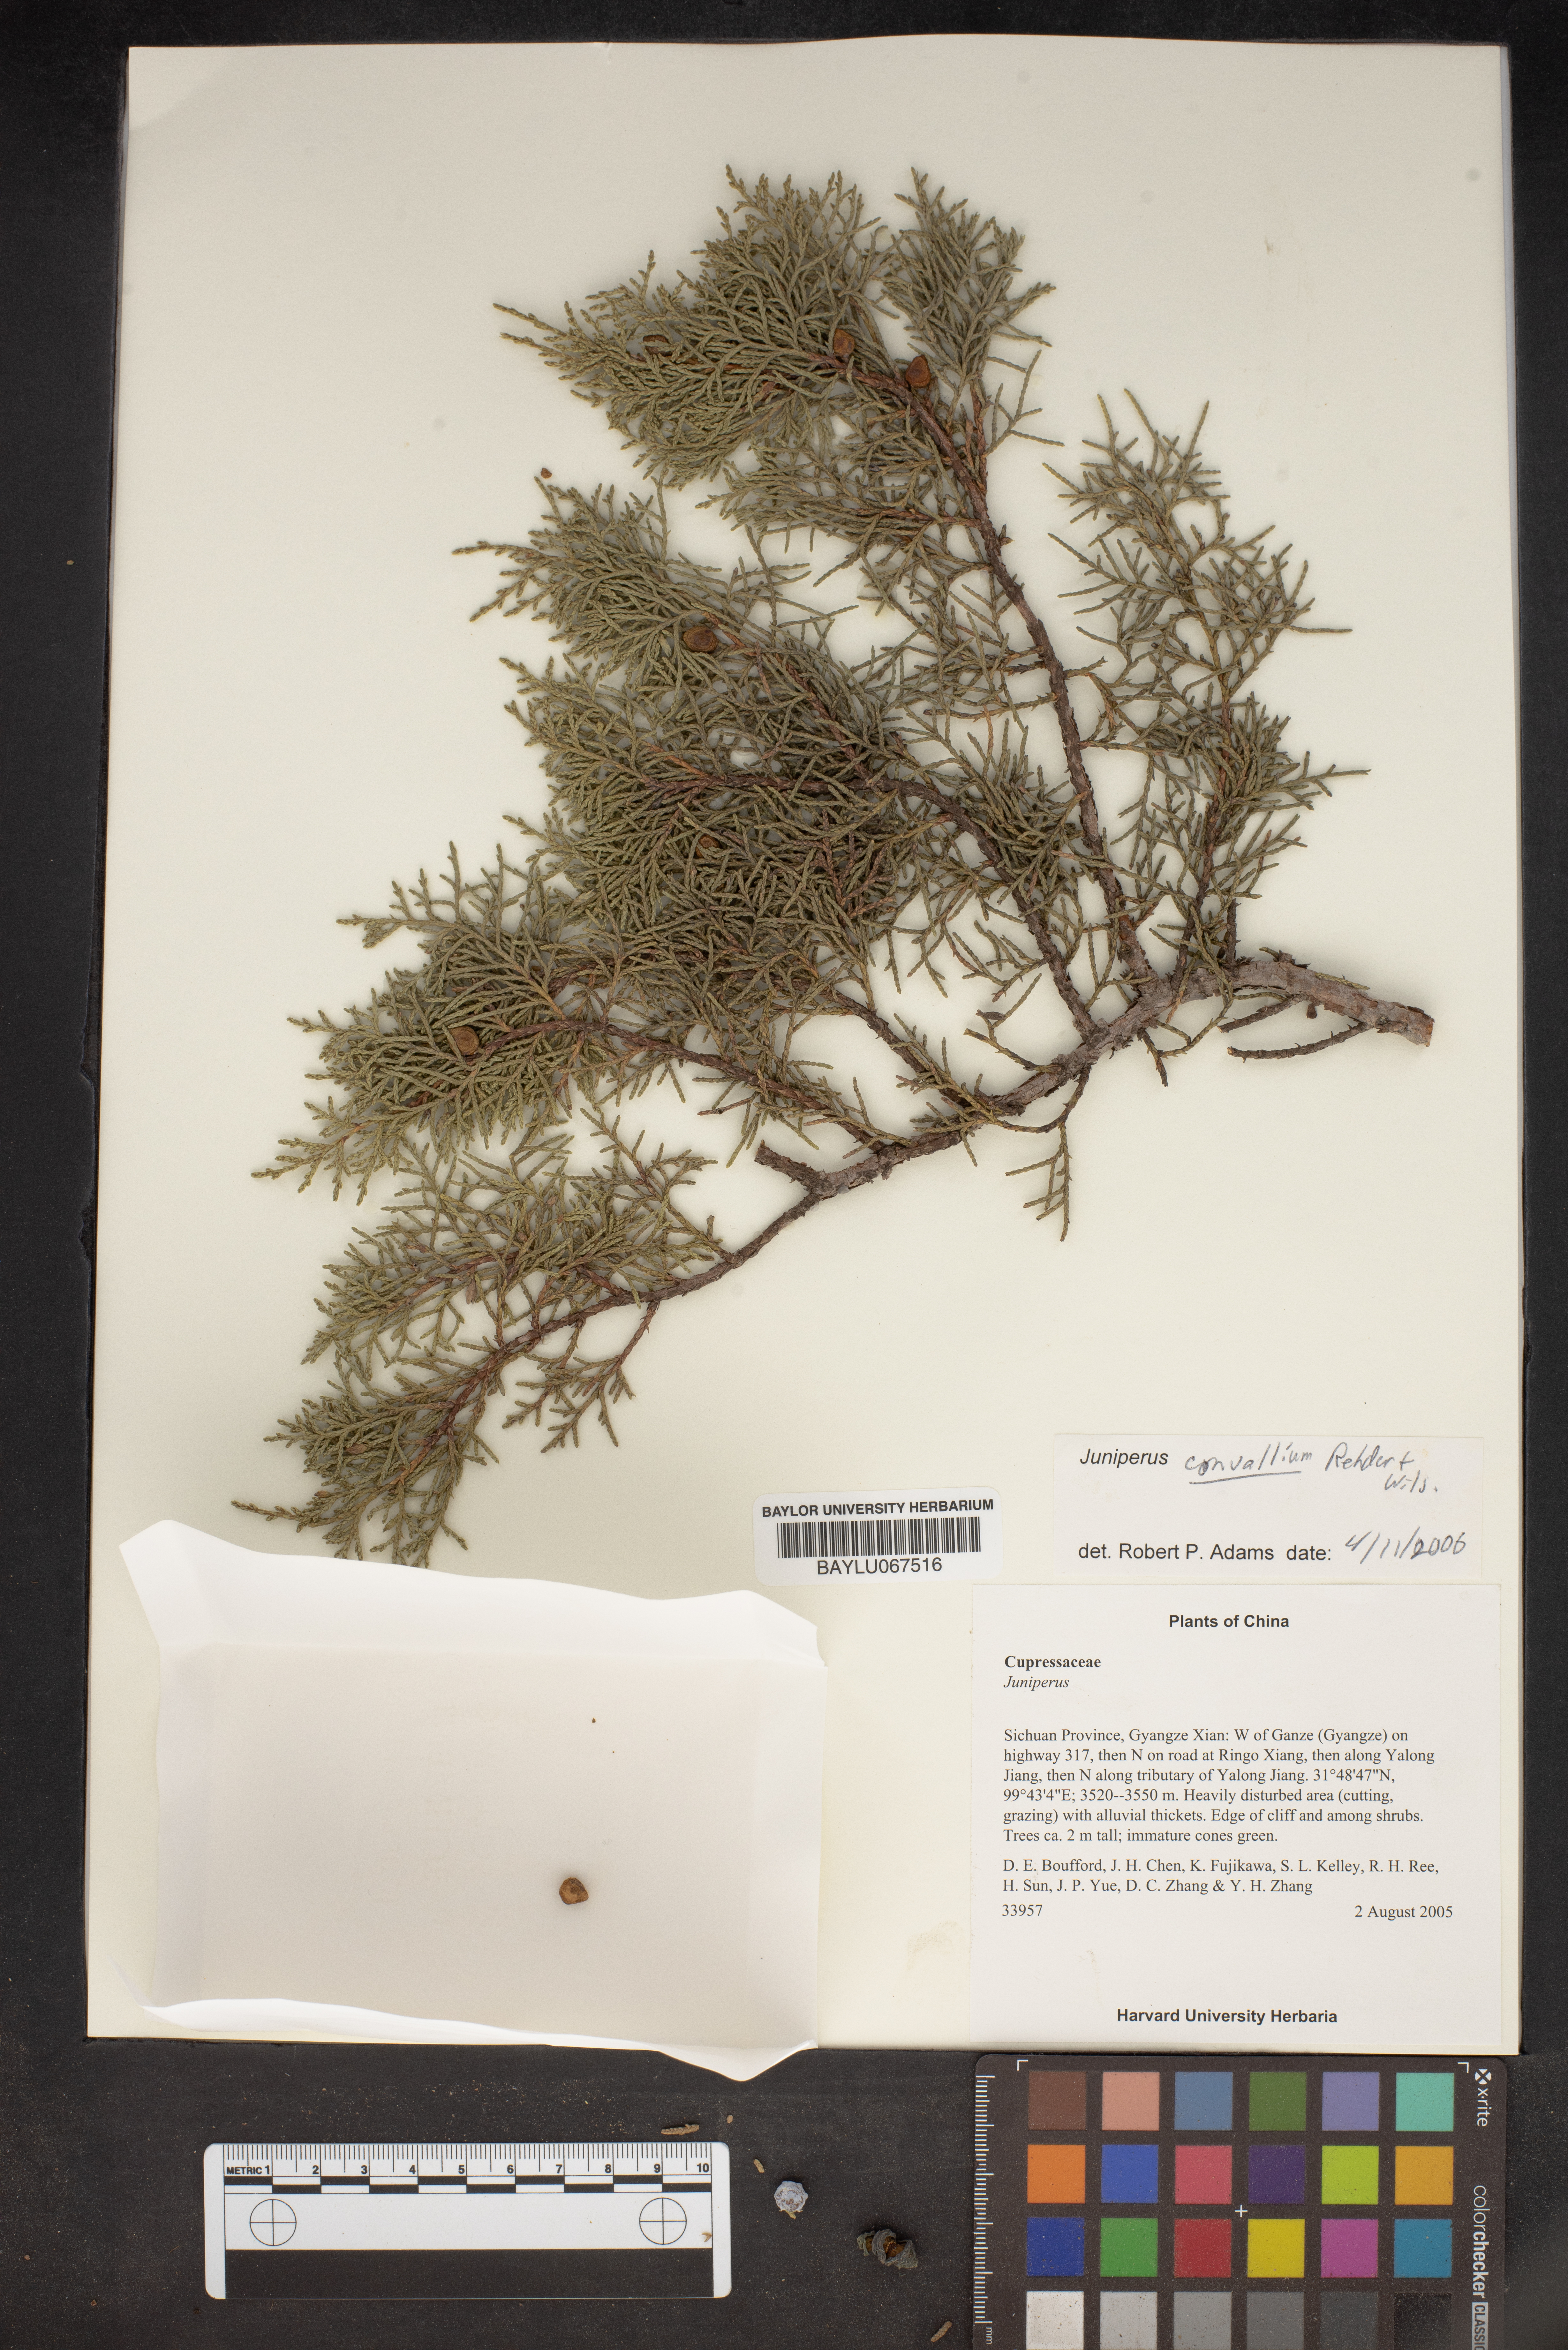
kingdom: Plantae
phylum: Tracheophyta
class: Pinopsida
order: Pinales
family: Cupressaceae
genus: Juniperus
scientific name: Juniperus convallium
